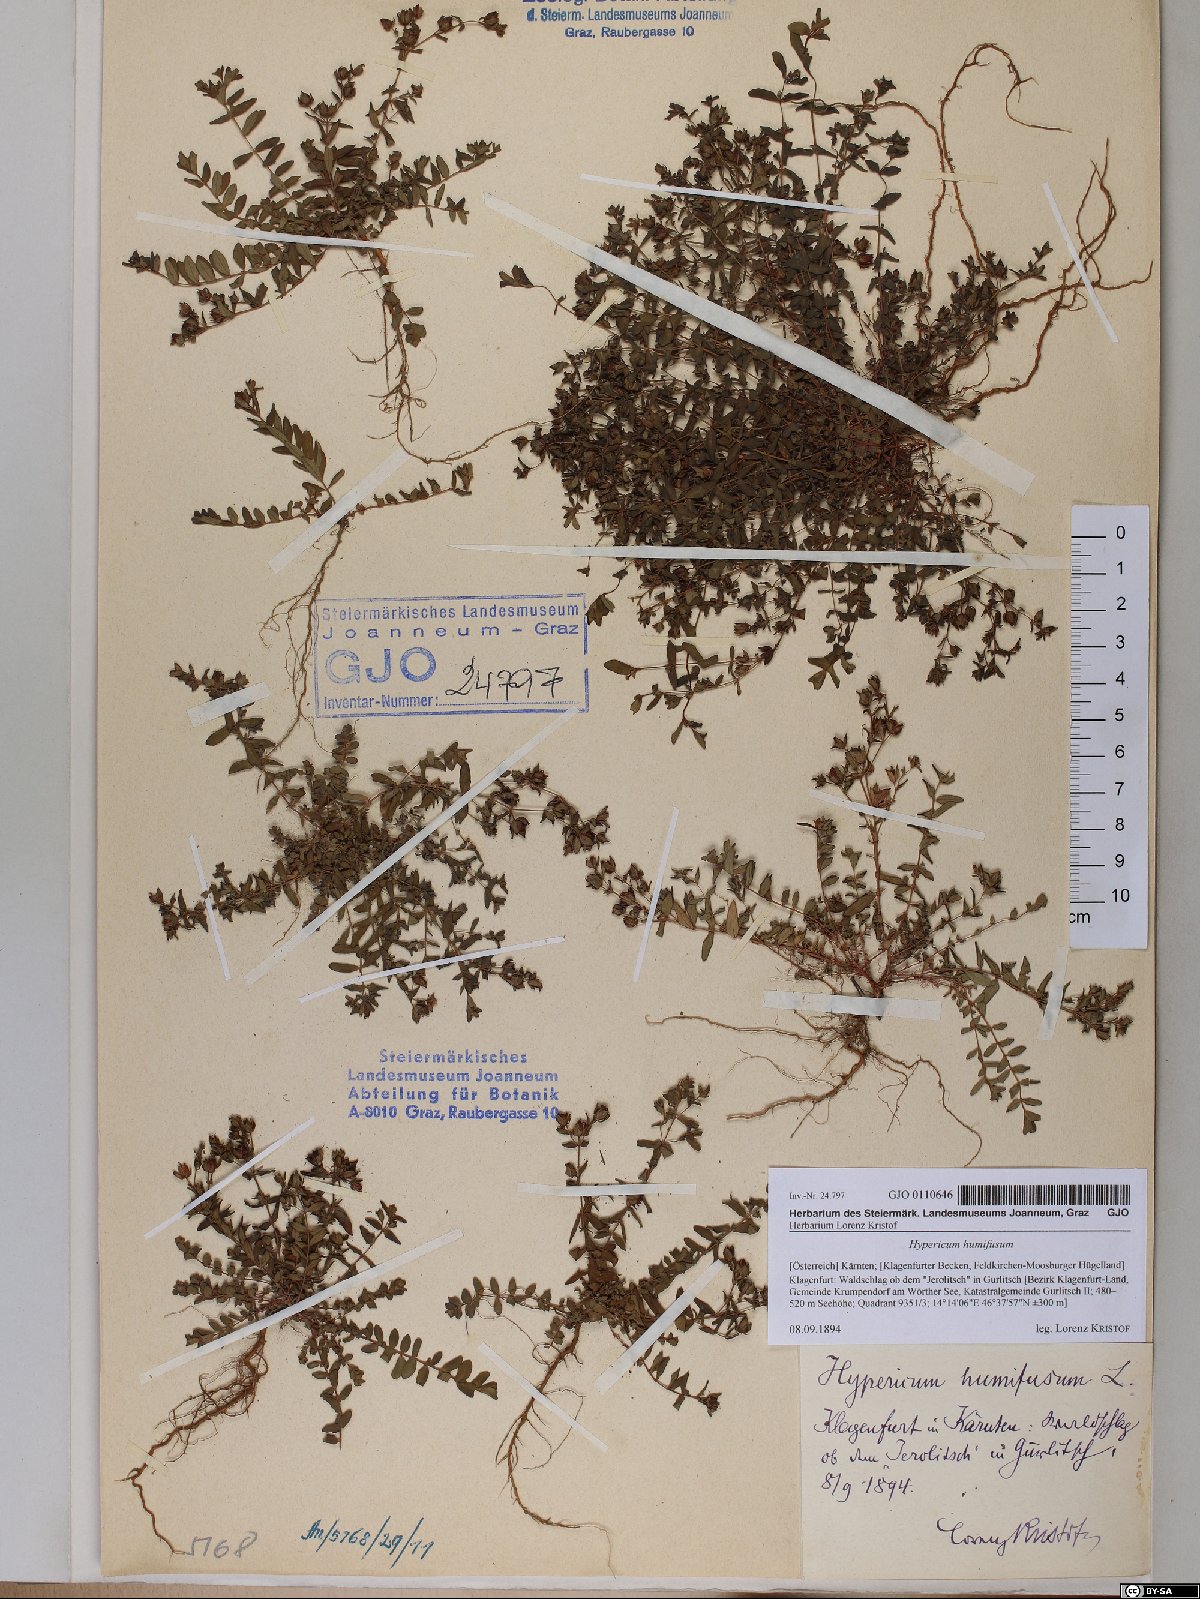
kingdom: Plantae
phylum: Tracheophyta
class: Magnoliopsida
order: Malpighiales
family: Hypericaceae
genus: Hypericum
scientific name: Hypericum humifusum
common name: Trailing st. john's-wort
